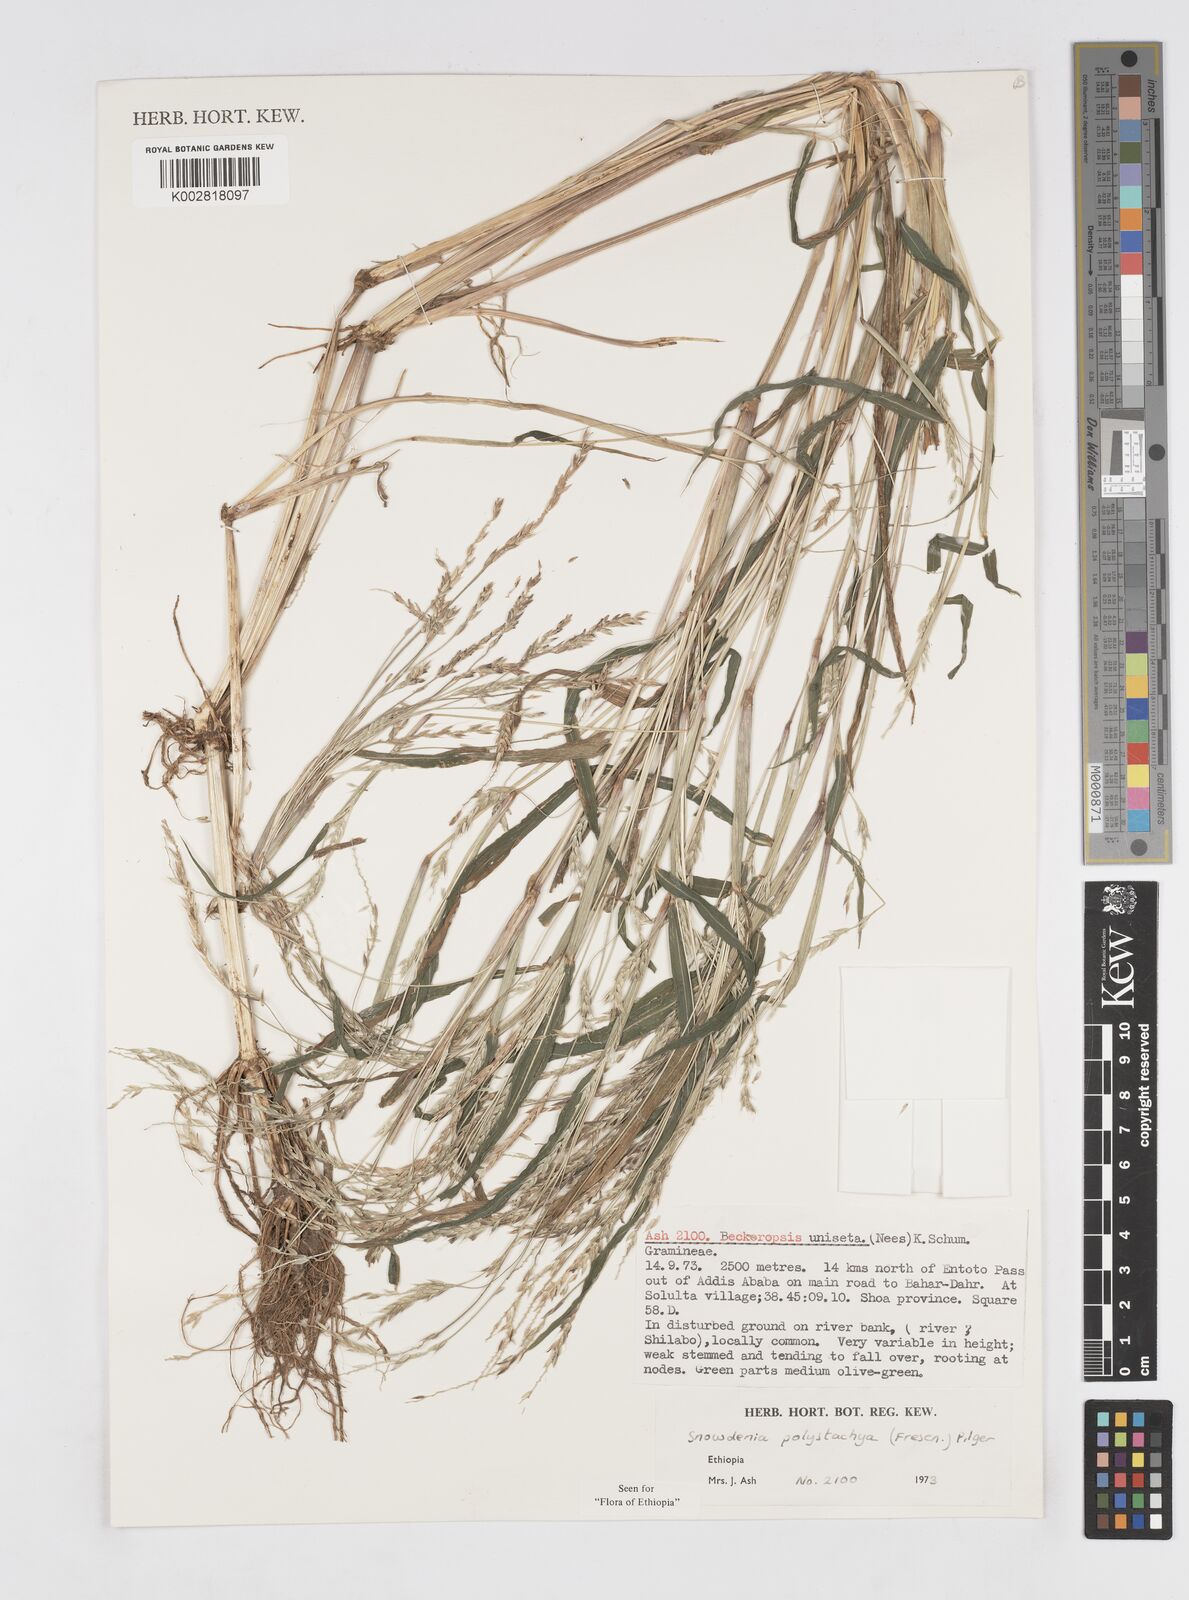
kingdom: Plantae
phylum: Tracheophyta
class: Liliopsida
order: Poales
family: Poaceae
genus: Snowdenia
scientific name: Snowdenia polystachya
